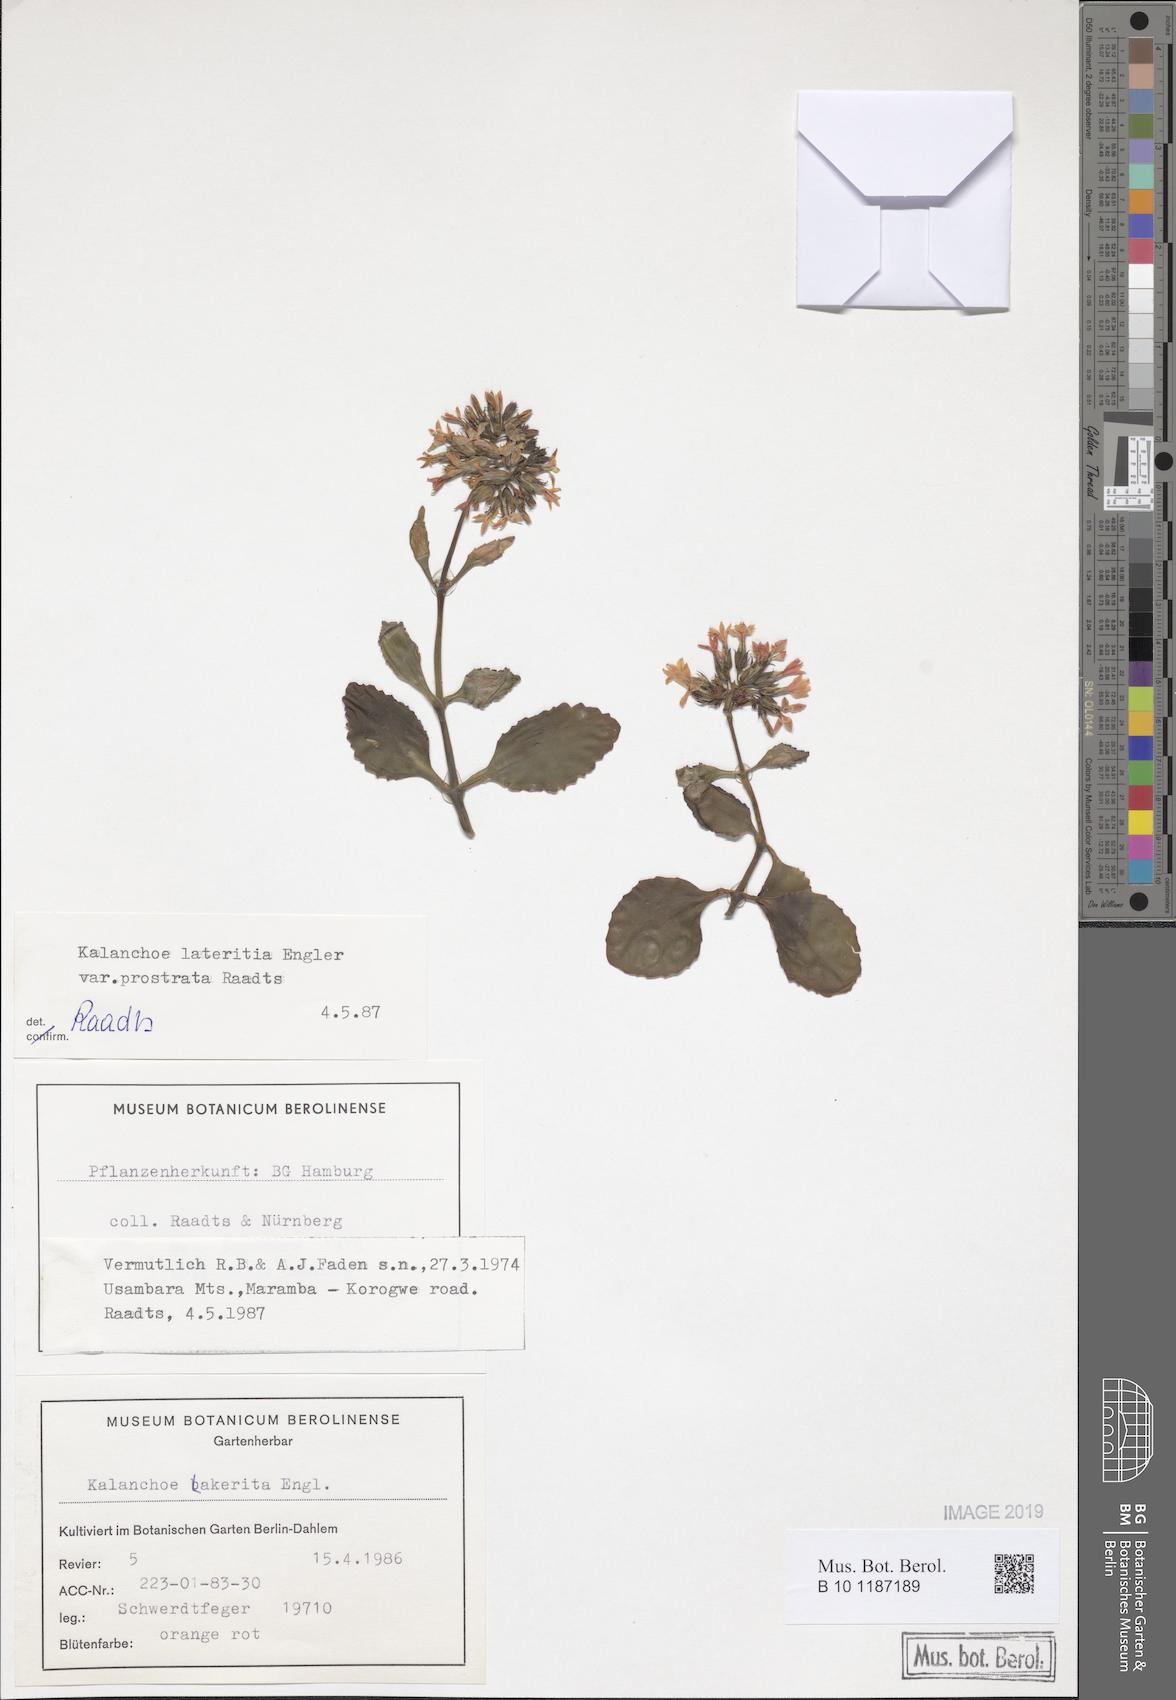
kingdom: Plantae
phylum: Tracheophyta
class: Magnoliopsida
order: Saxifragales
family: Crassulaceae
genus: Kalanchoe
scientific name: Kalanchoe lateritia
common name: Kalanchoe
